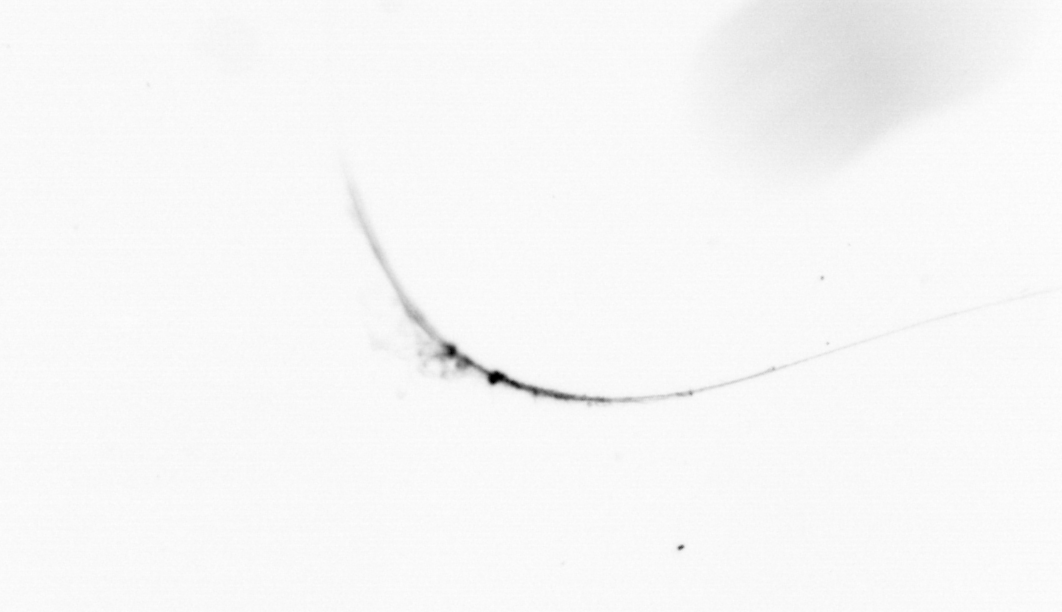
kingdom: Chromista
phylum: Ochrophyta
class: Bacillariophyceae
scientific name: Bacillariophyceae
